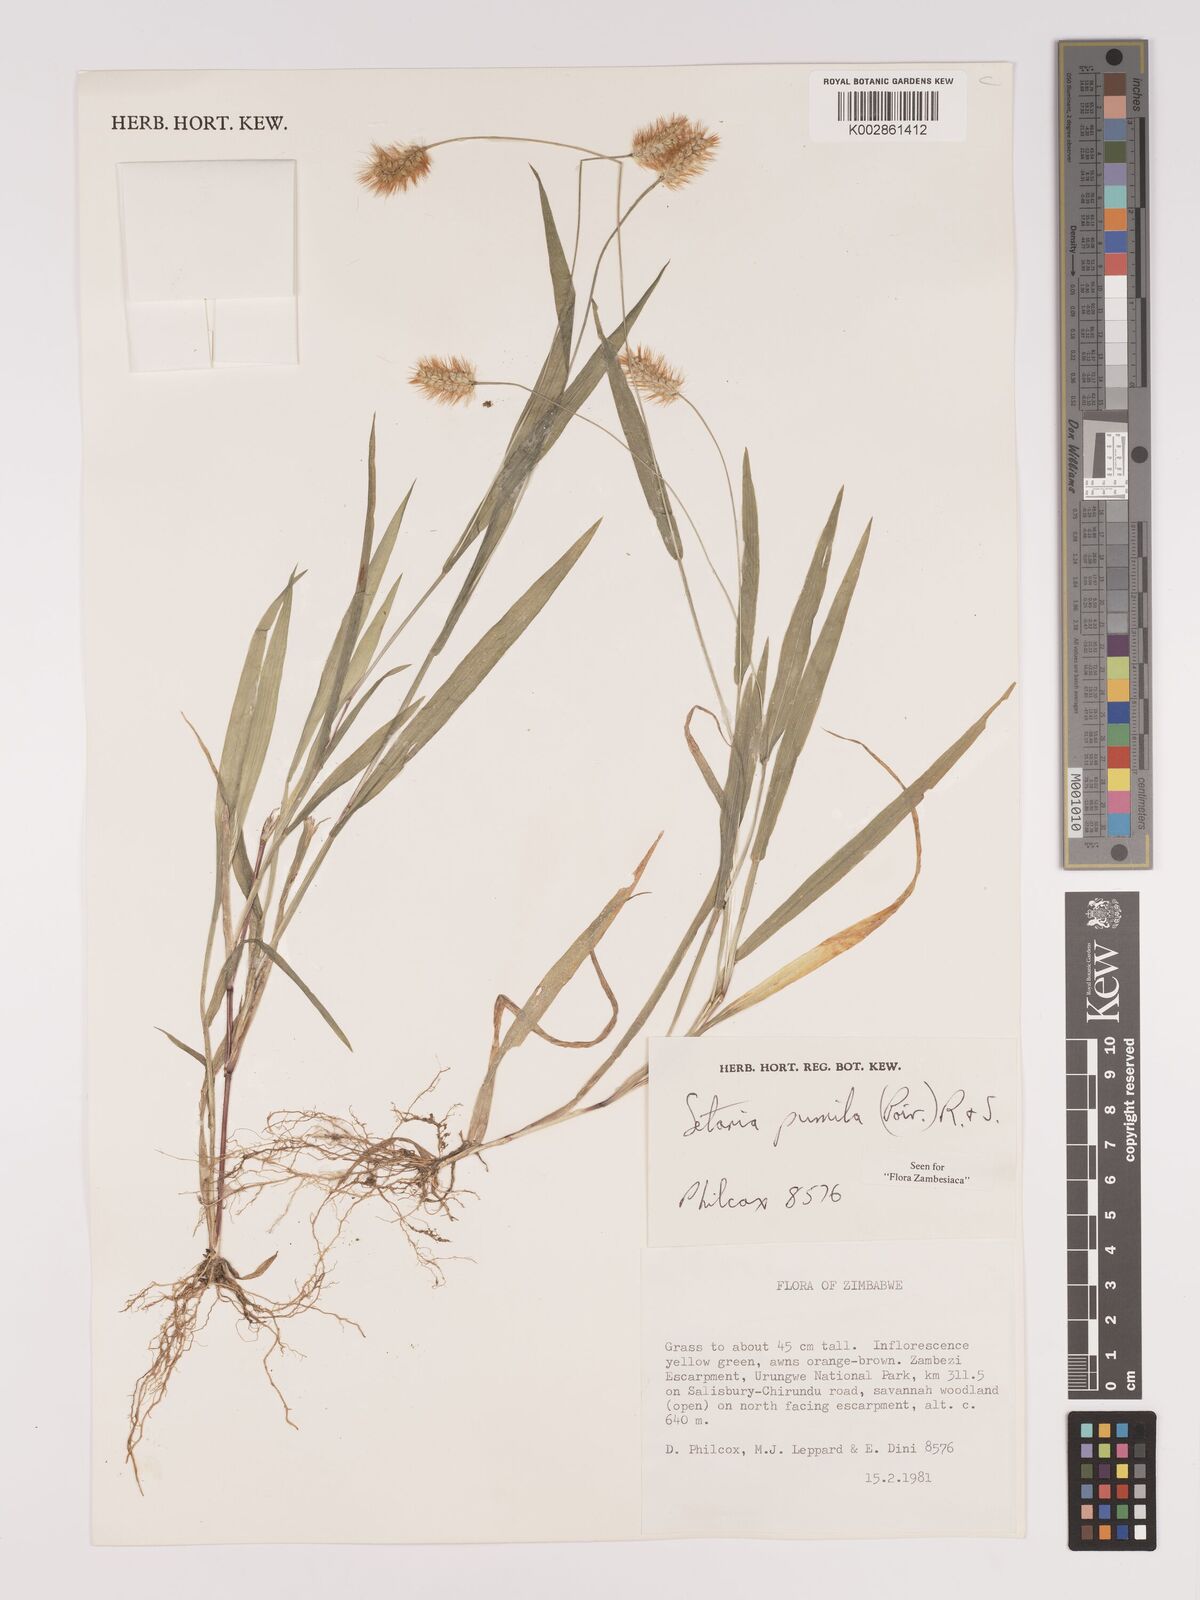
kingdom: Plantae
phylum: Tracheophyta
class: Liliopsida
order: Poales
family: Poaceae
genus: Setaria
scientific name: Setaria pumila
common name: Yellow bristle-grass
